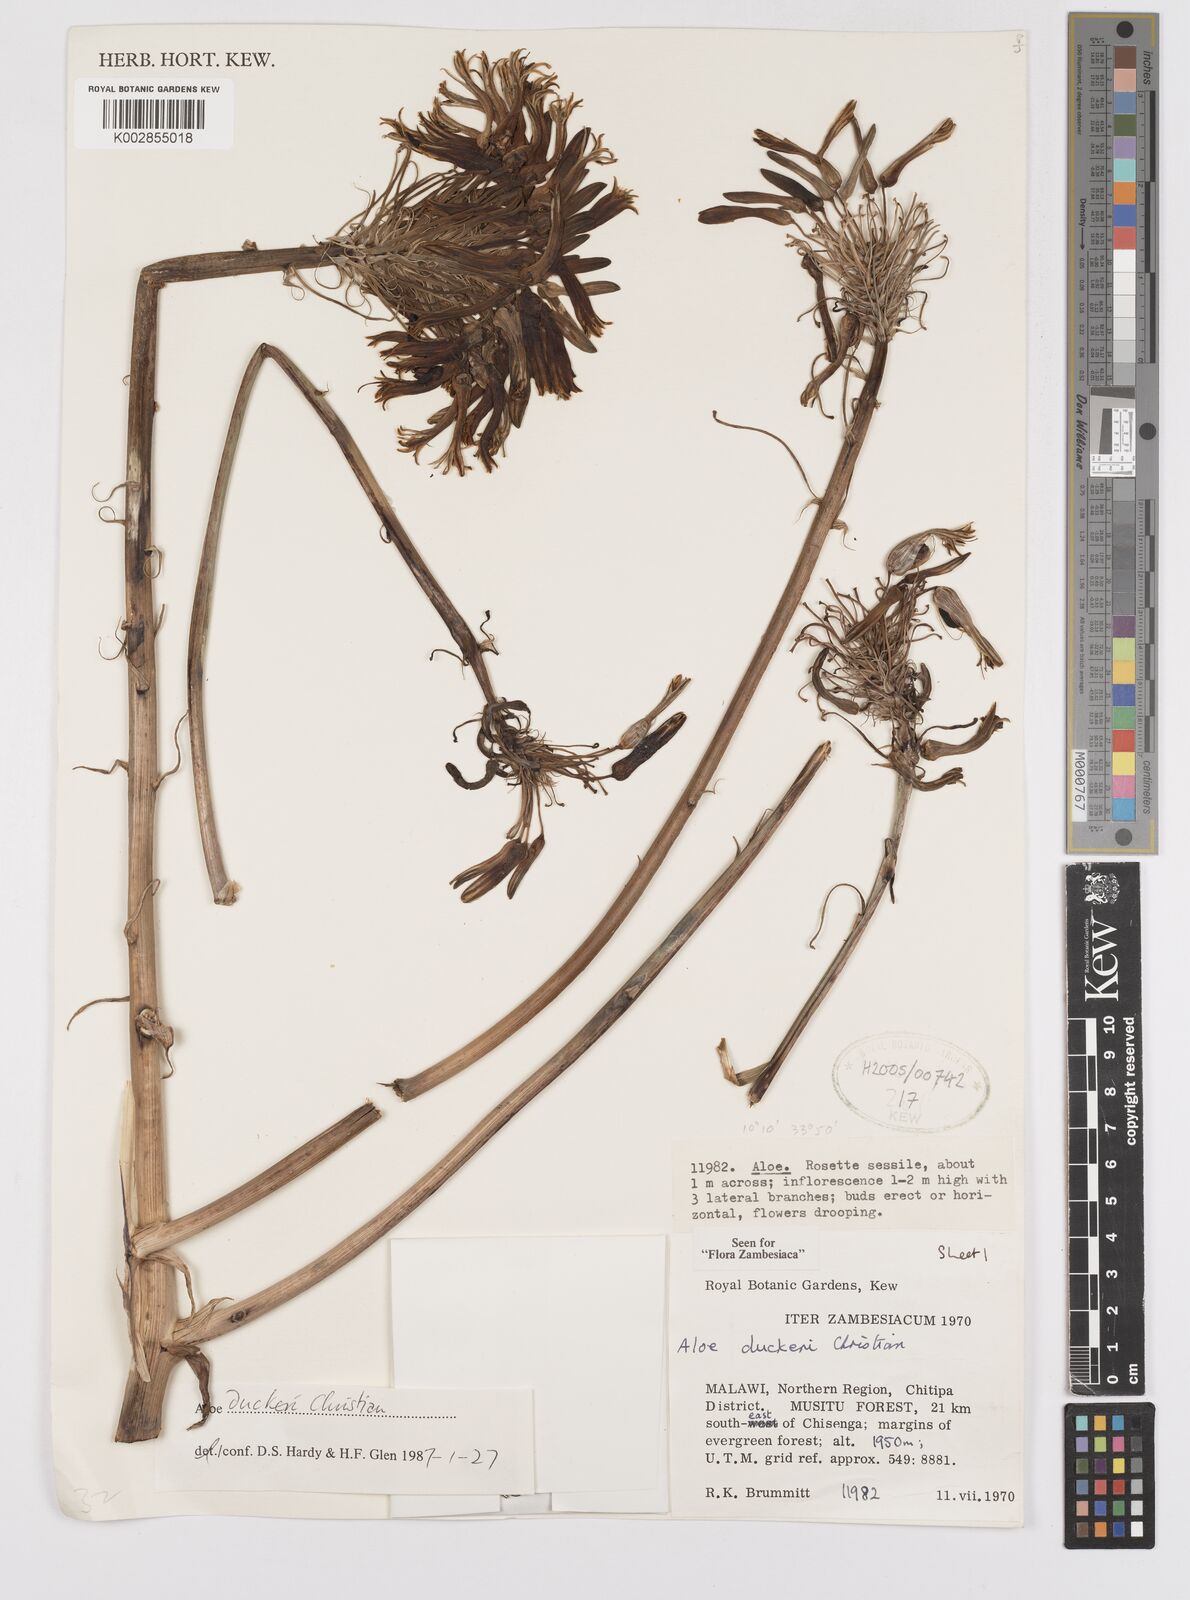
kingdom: Plantae
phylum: Tracheophyta
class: Liliopsida
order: Asparagales
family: Asphodelaceae
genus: Aloe
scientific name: Aloe duckeri
